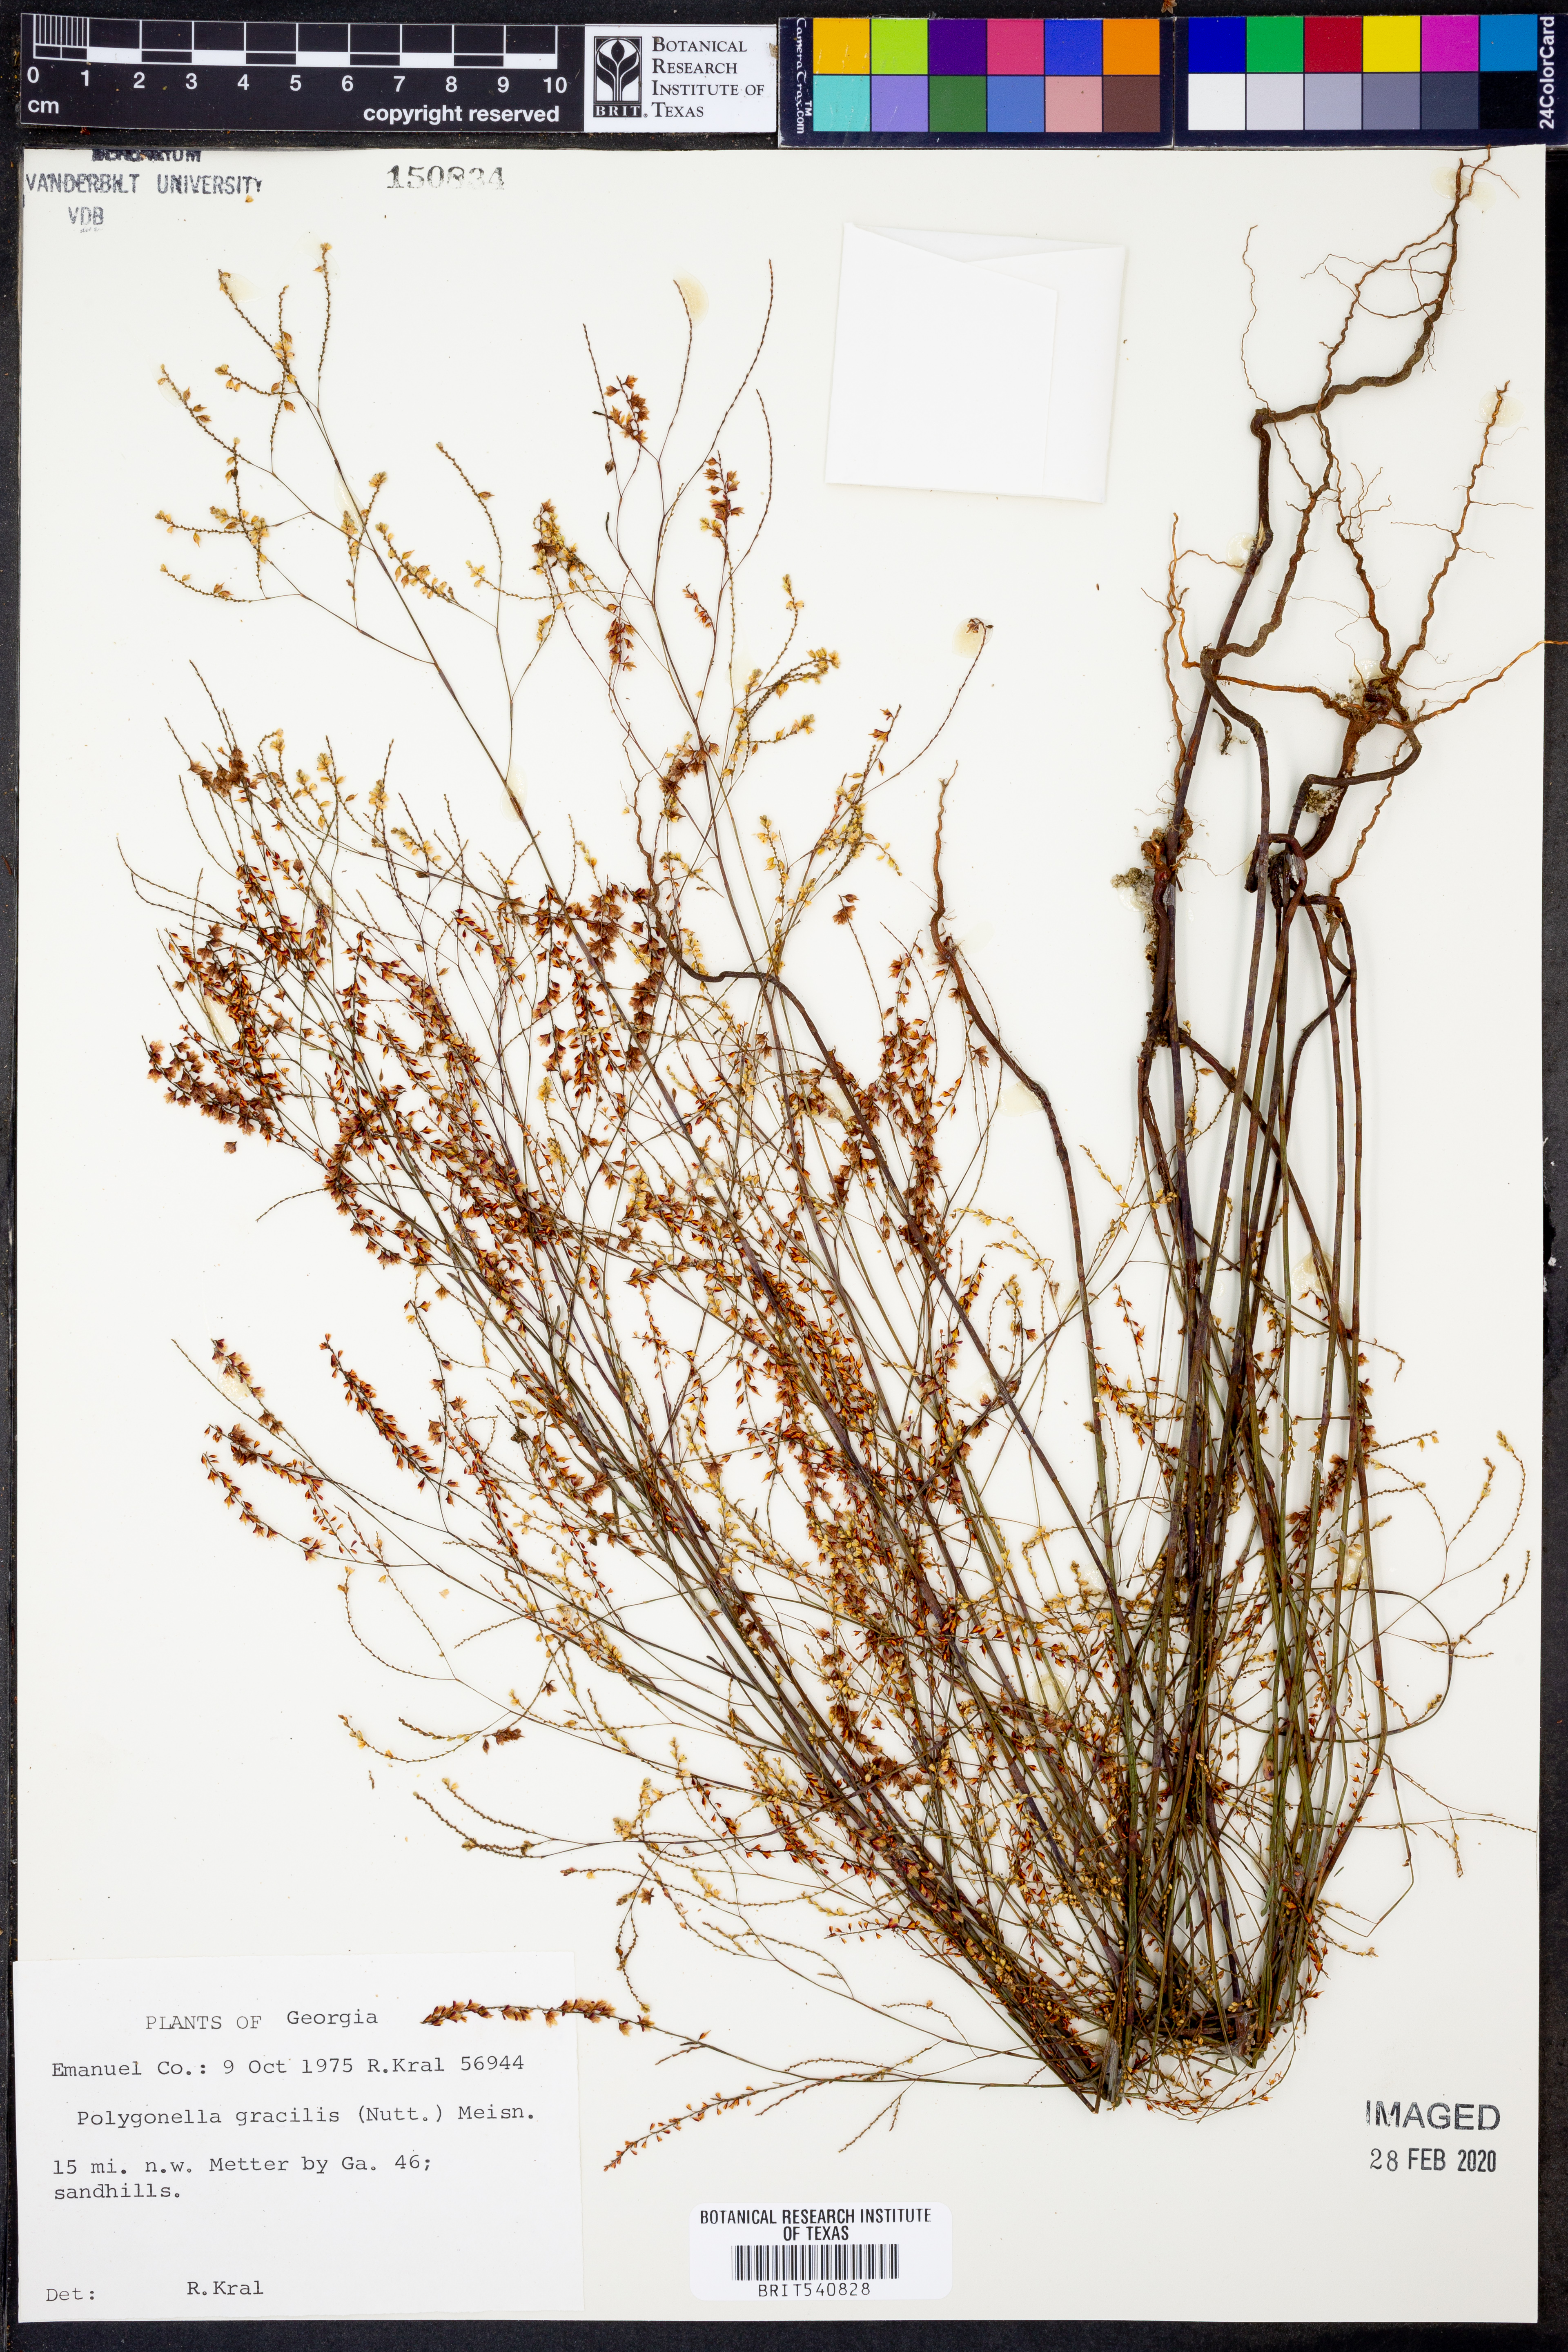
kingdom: Plantae
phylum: Tracheophyta
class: Magnoliopsida
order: Caryophyllales
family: Polygonaceae
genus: Polygonella
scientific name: Polygonella gracilis
